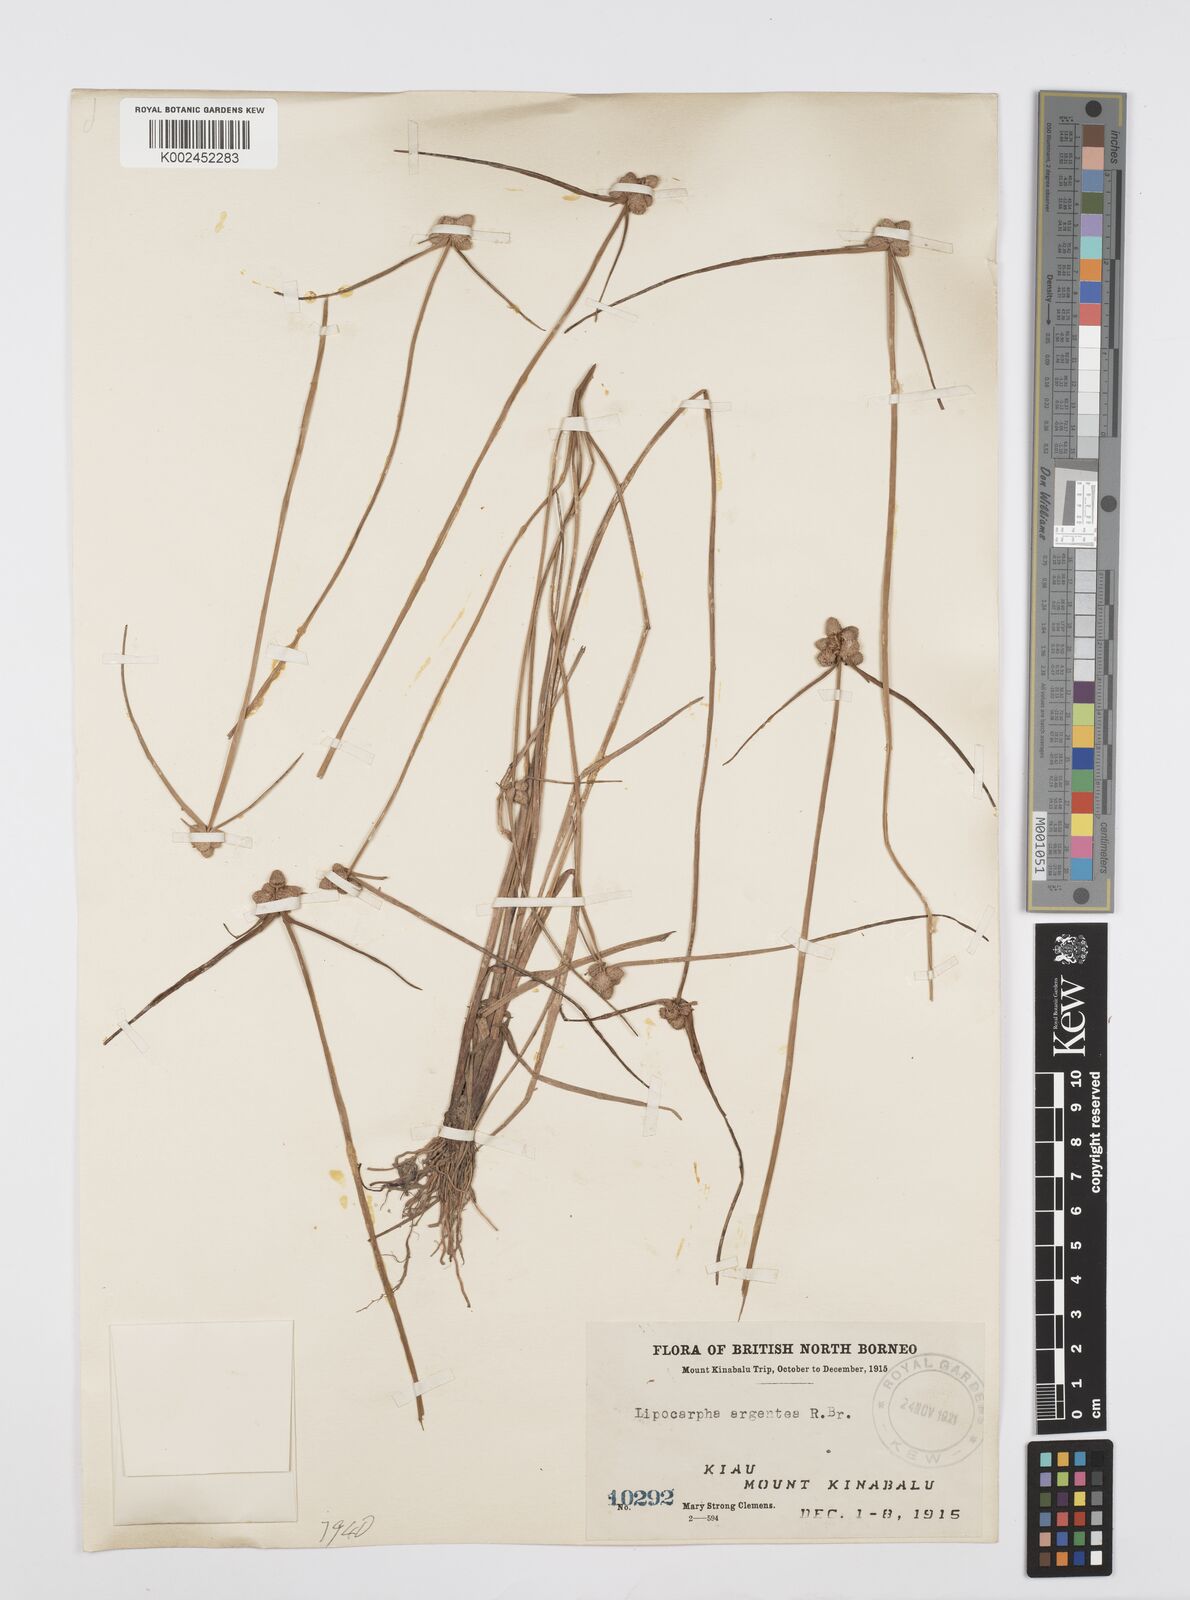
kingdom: Plantae
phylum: Tracheophyta
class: Liliopsida
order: Poales
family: Cyperaceae
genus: Cyperus
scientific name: Cyperus albescens
